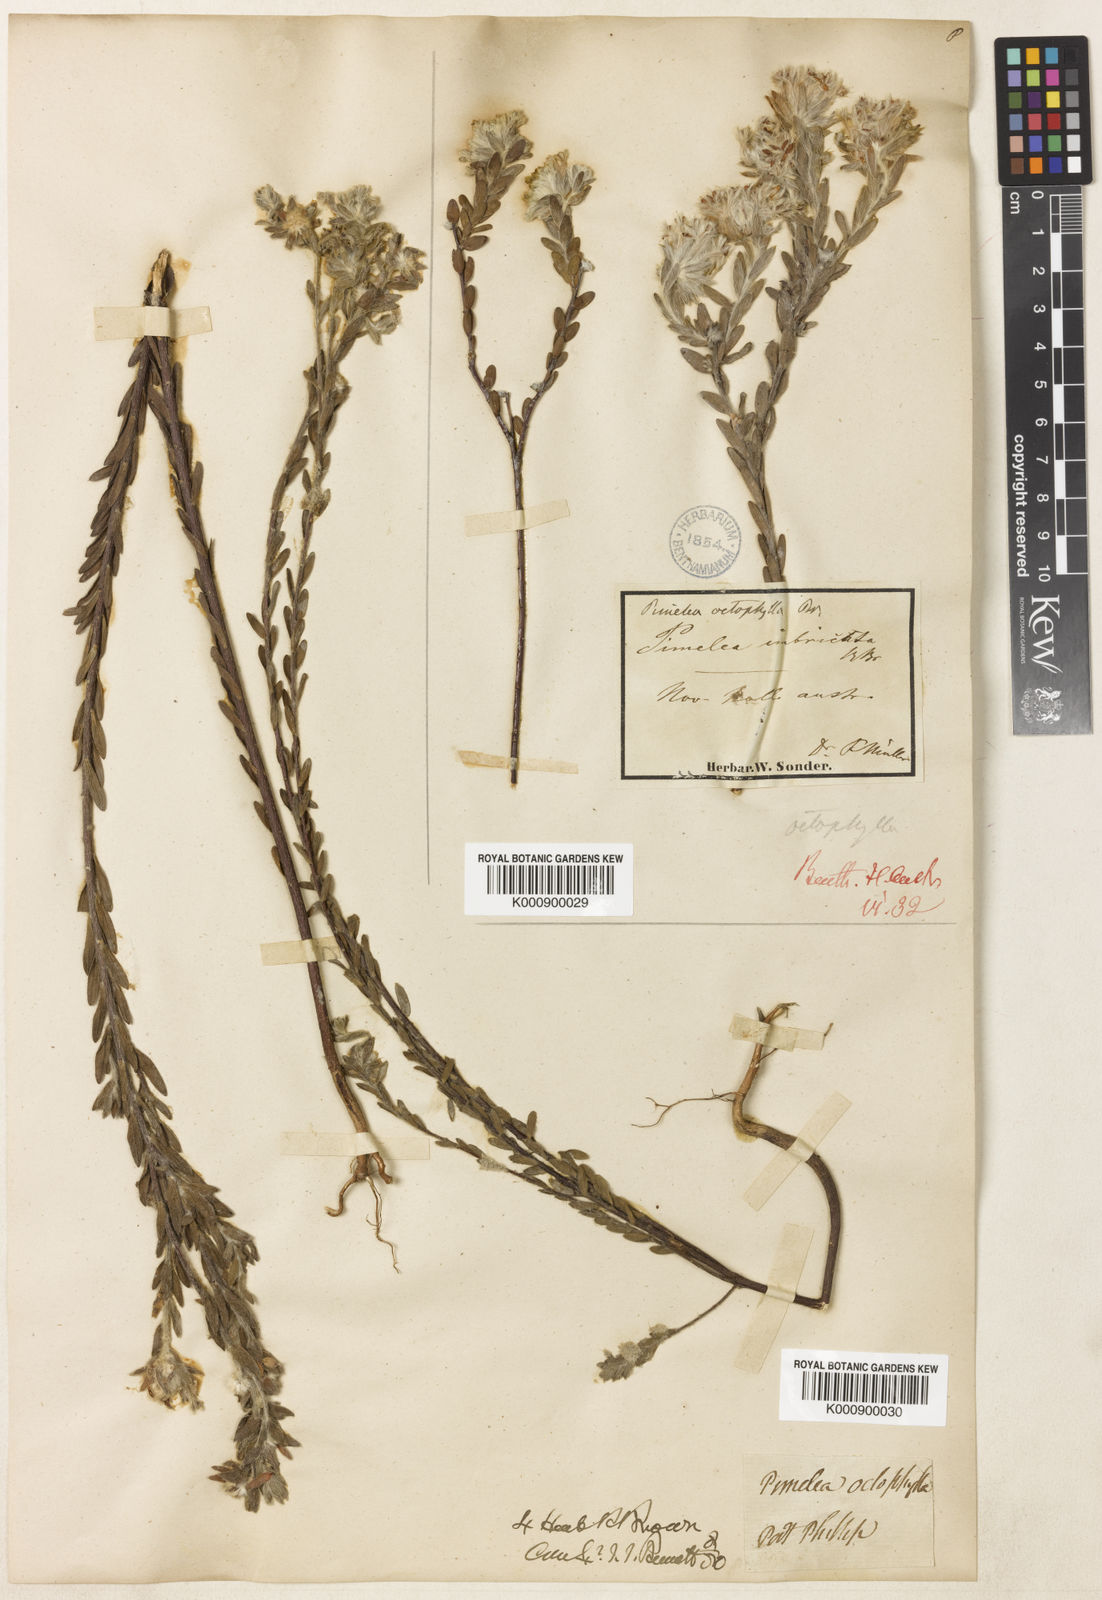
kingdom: Plantae
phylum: Tracheophyta
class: Magnoliopsida
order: Malvales
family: Thymelaeaceae
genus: Pimelea
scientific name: Pimelea octophylla
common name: Woolly riceflower
